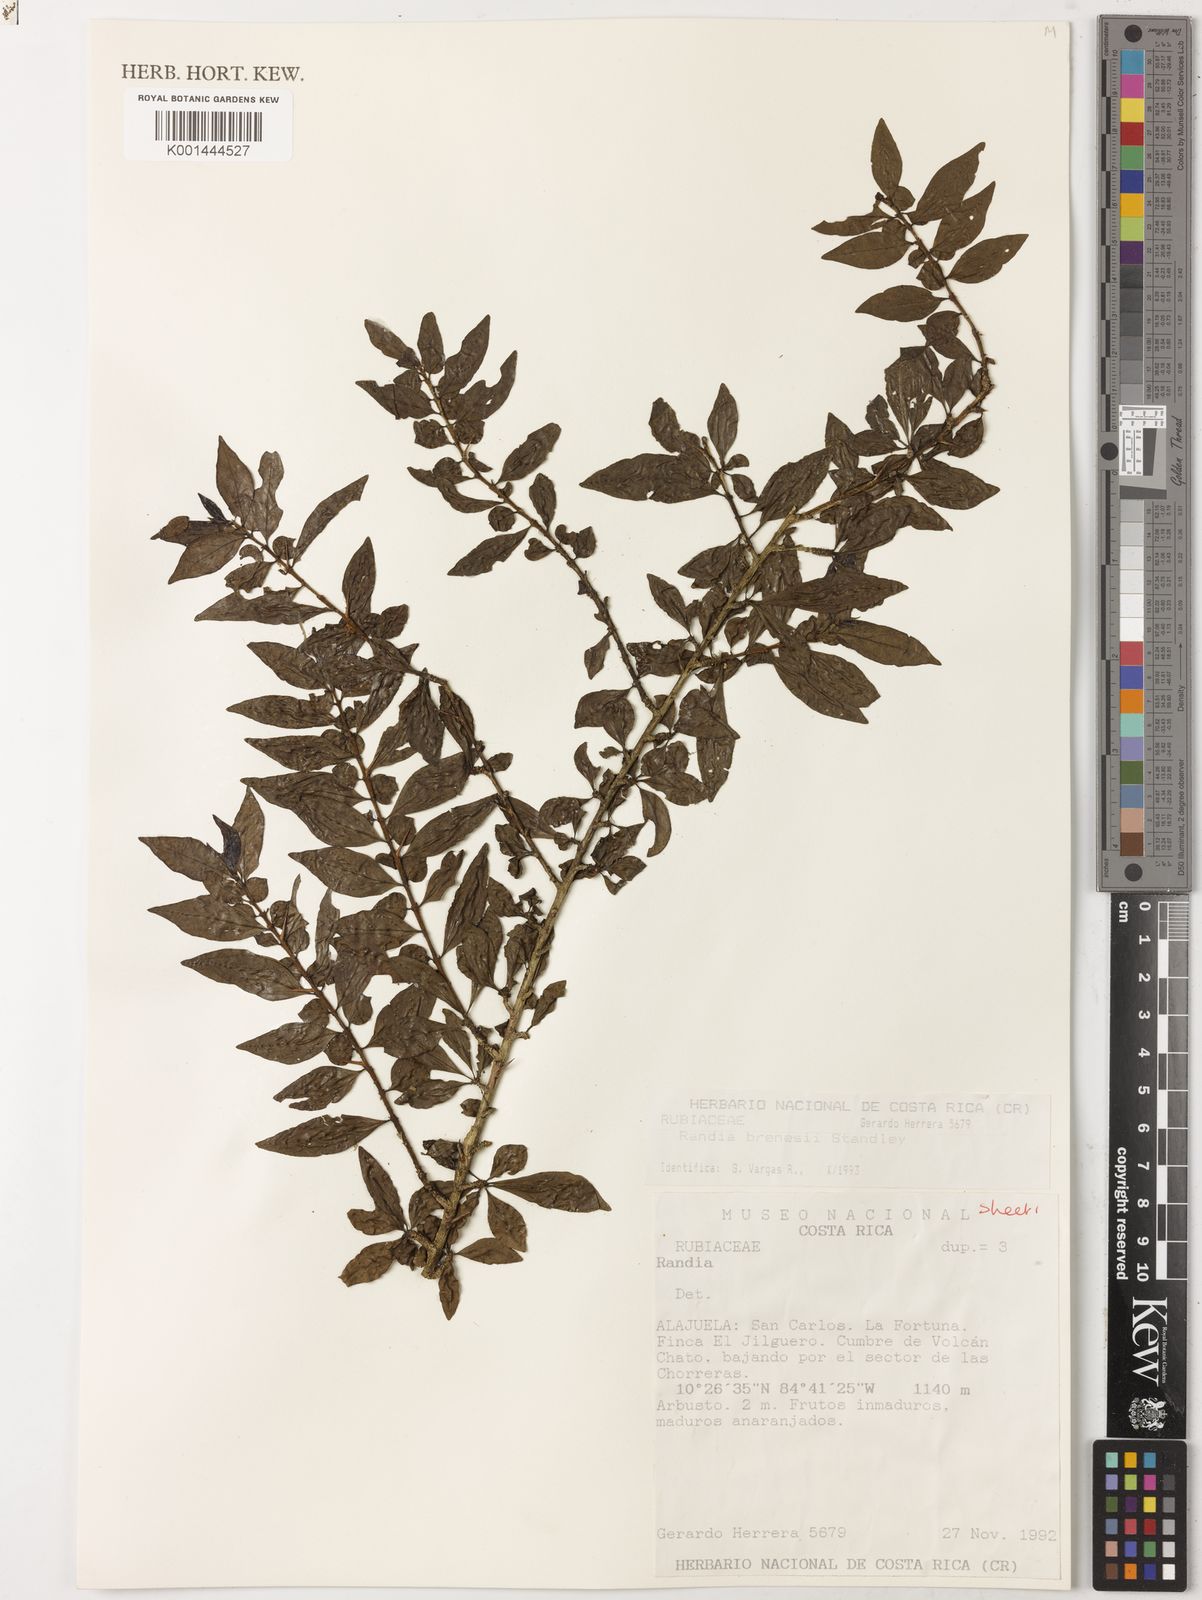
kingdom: Plantae
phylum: Tracheophyta
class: Magnoliopsida
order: Gentianales
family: Rubiaceae
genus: Randia
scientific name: Randia brenesii
